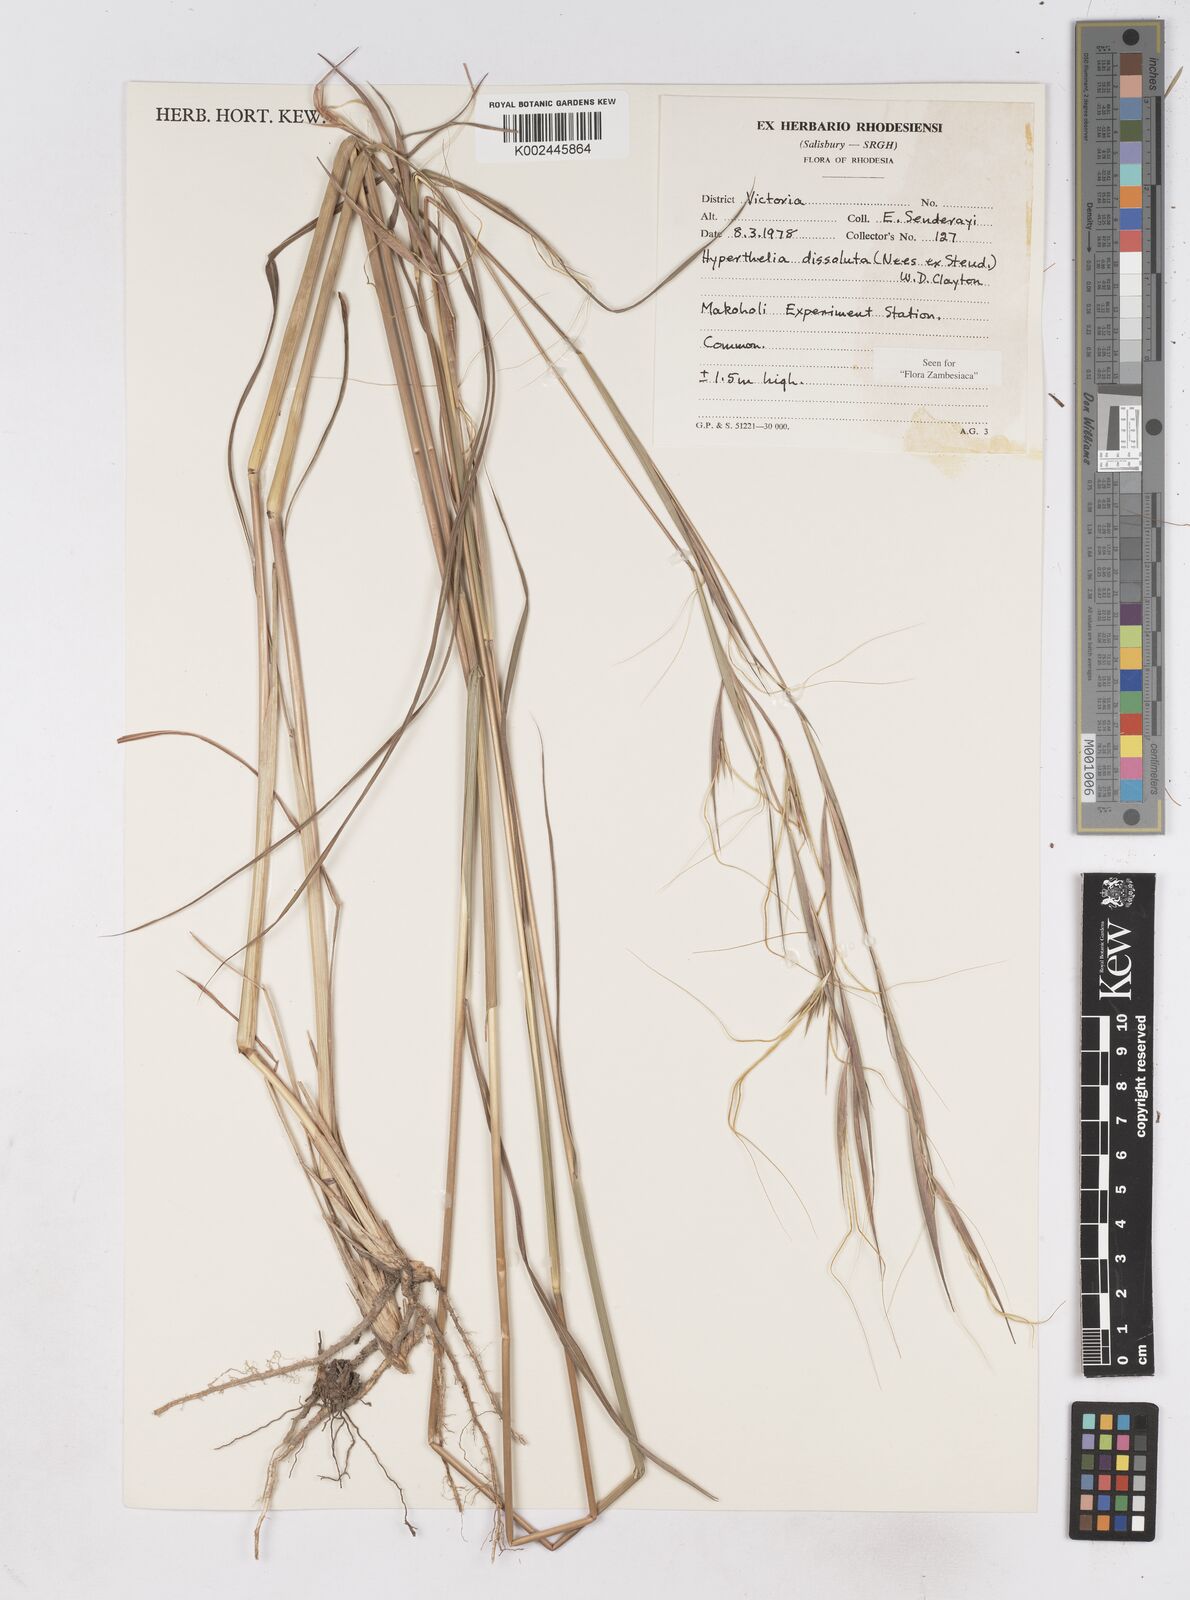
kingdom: Plantae
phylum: Tracheophyta
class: Liliopsida
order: Poales
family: Poaceae
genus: Hyperthelia
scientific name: Hyperthelia dissoluta
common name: Yellow thatching grass
